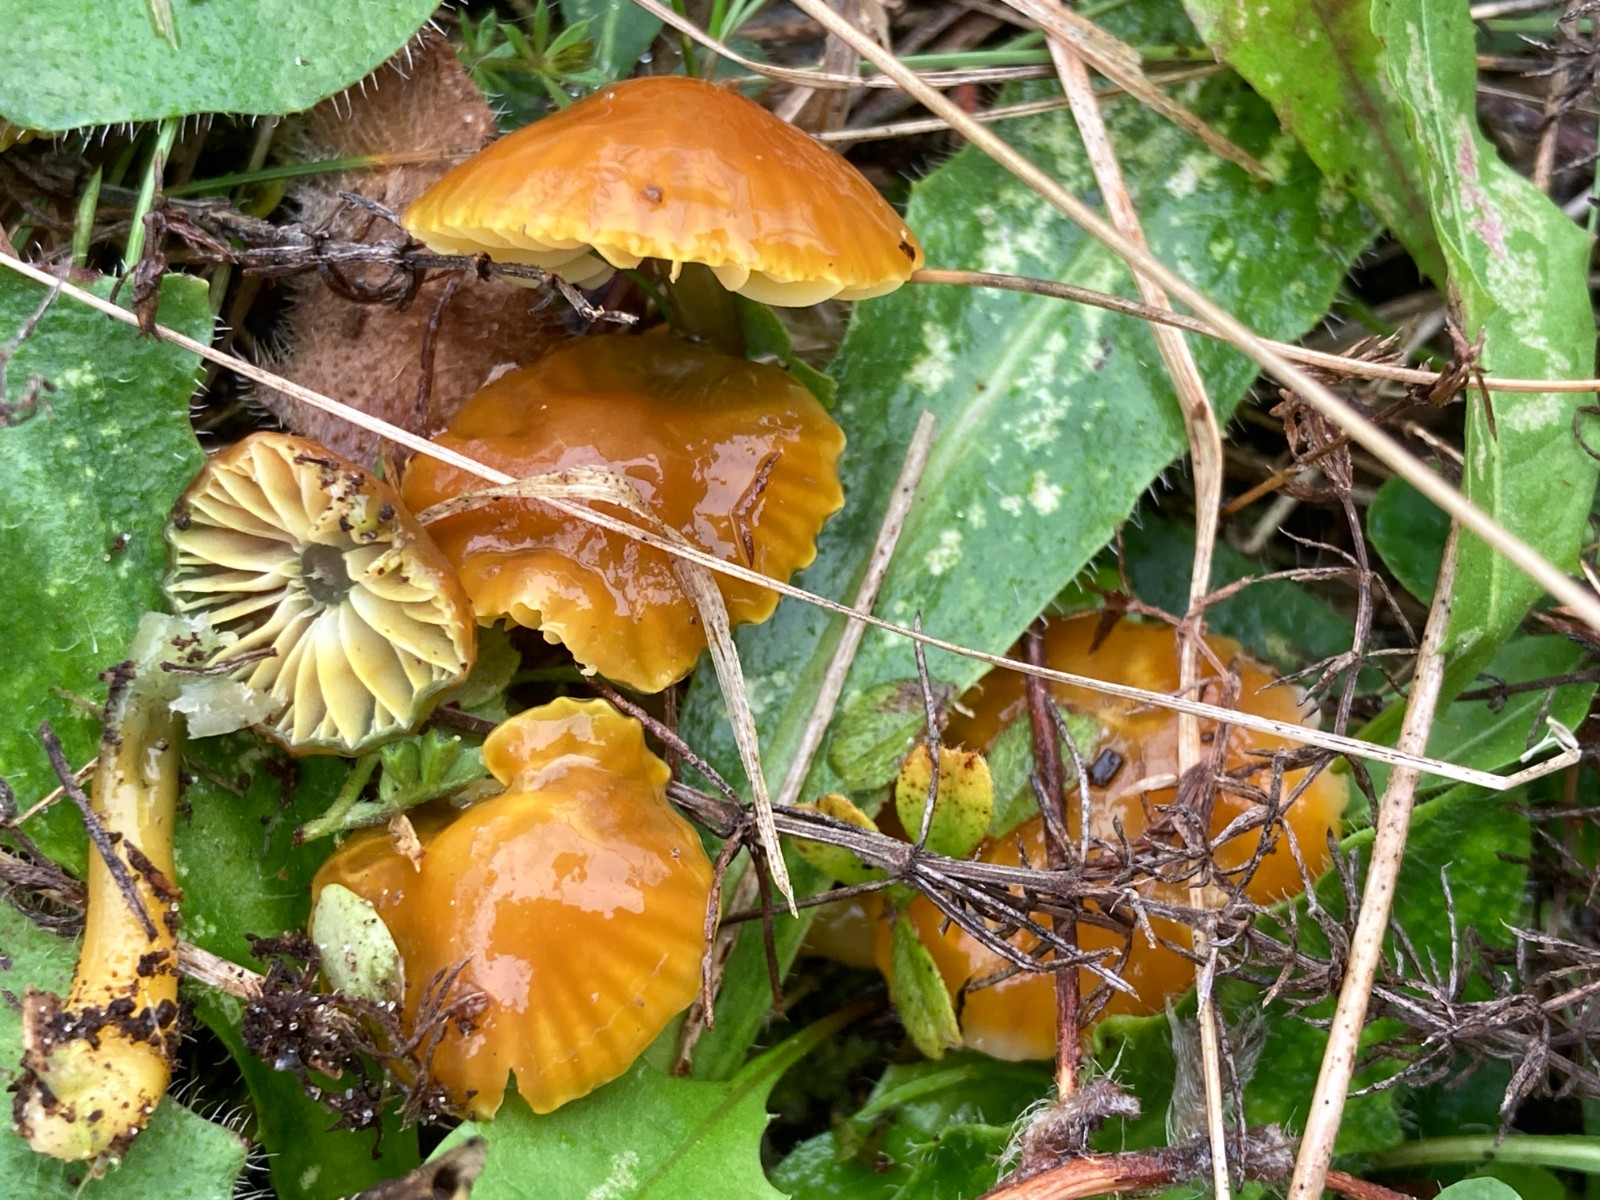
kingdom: Fungi
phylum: Basidiomycota
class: Agaricomycetes
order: Agaricales
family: Hygrophoraceae
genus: Gliophorus
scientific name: Gliophorus psittacinus
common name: papegøje-vokshat
